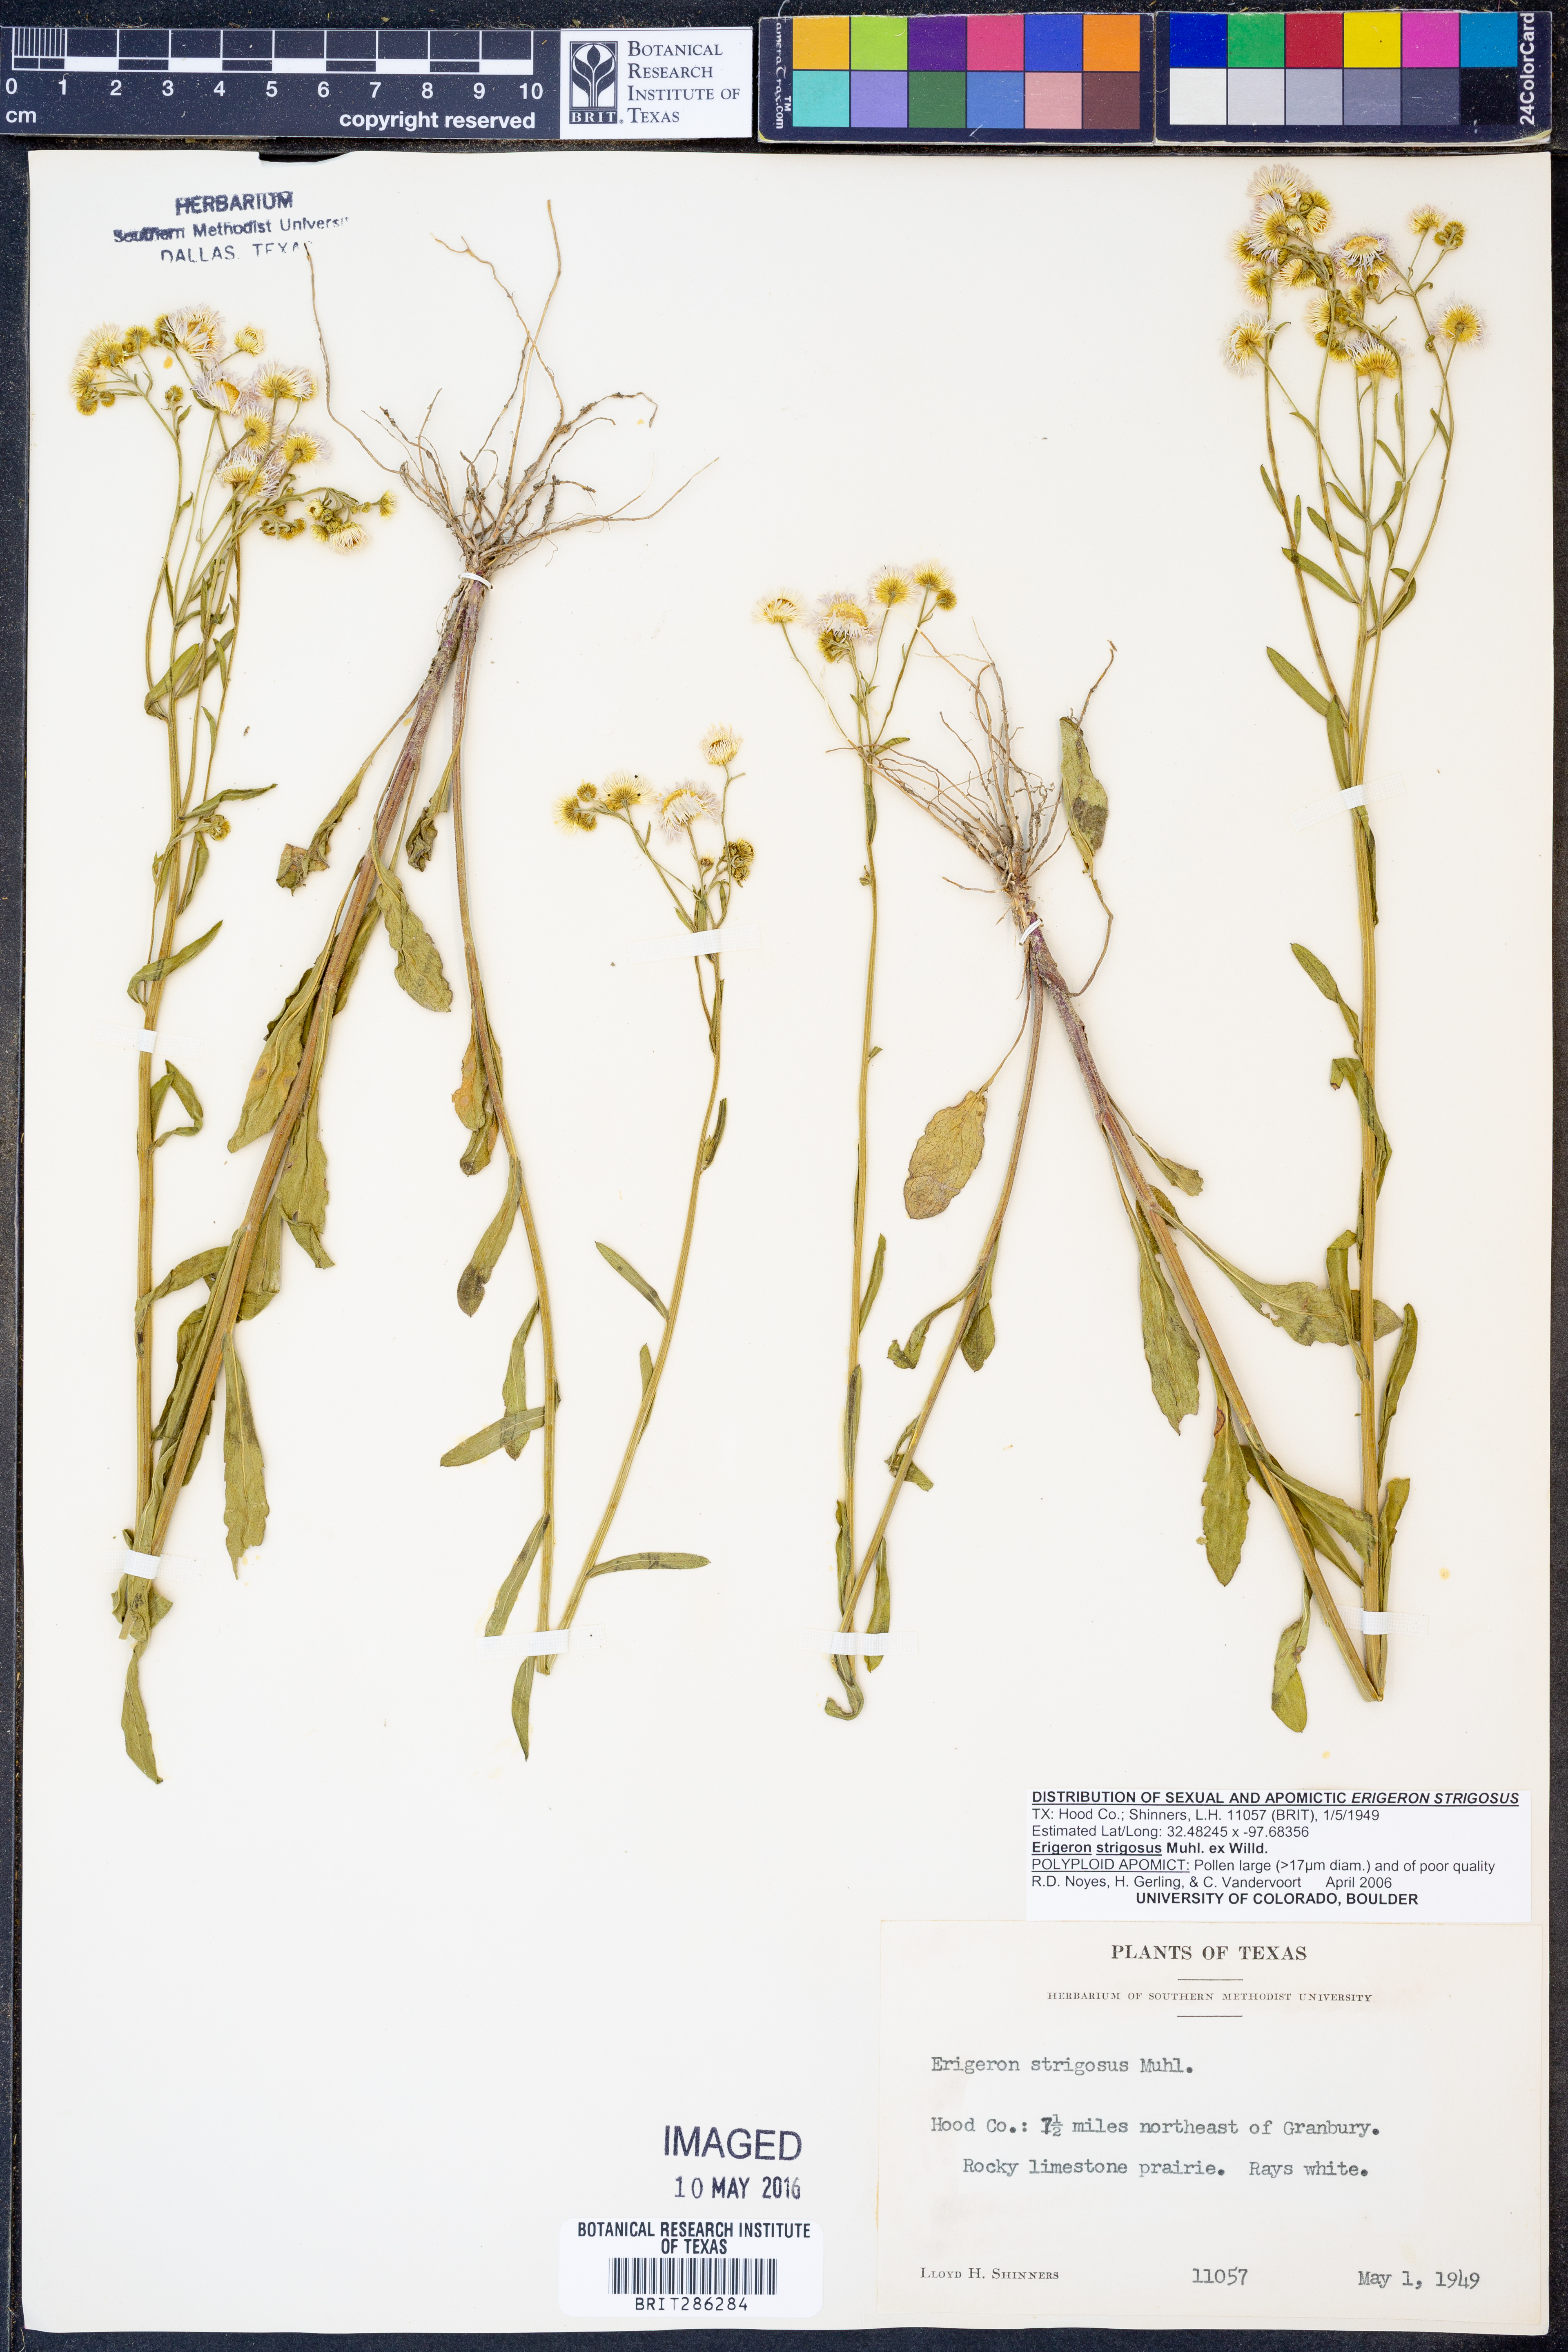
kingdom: Plantae
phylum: Tracheophyta
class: Magnoliopsida
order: Asterales
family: Asteraceae
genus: Erigeron
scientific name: Erigeron strigosus
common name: Common eastern fleabane
